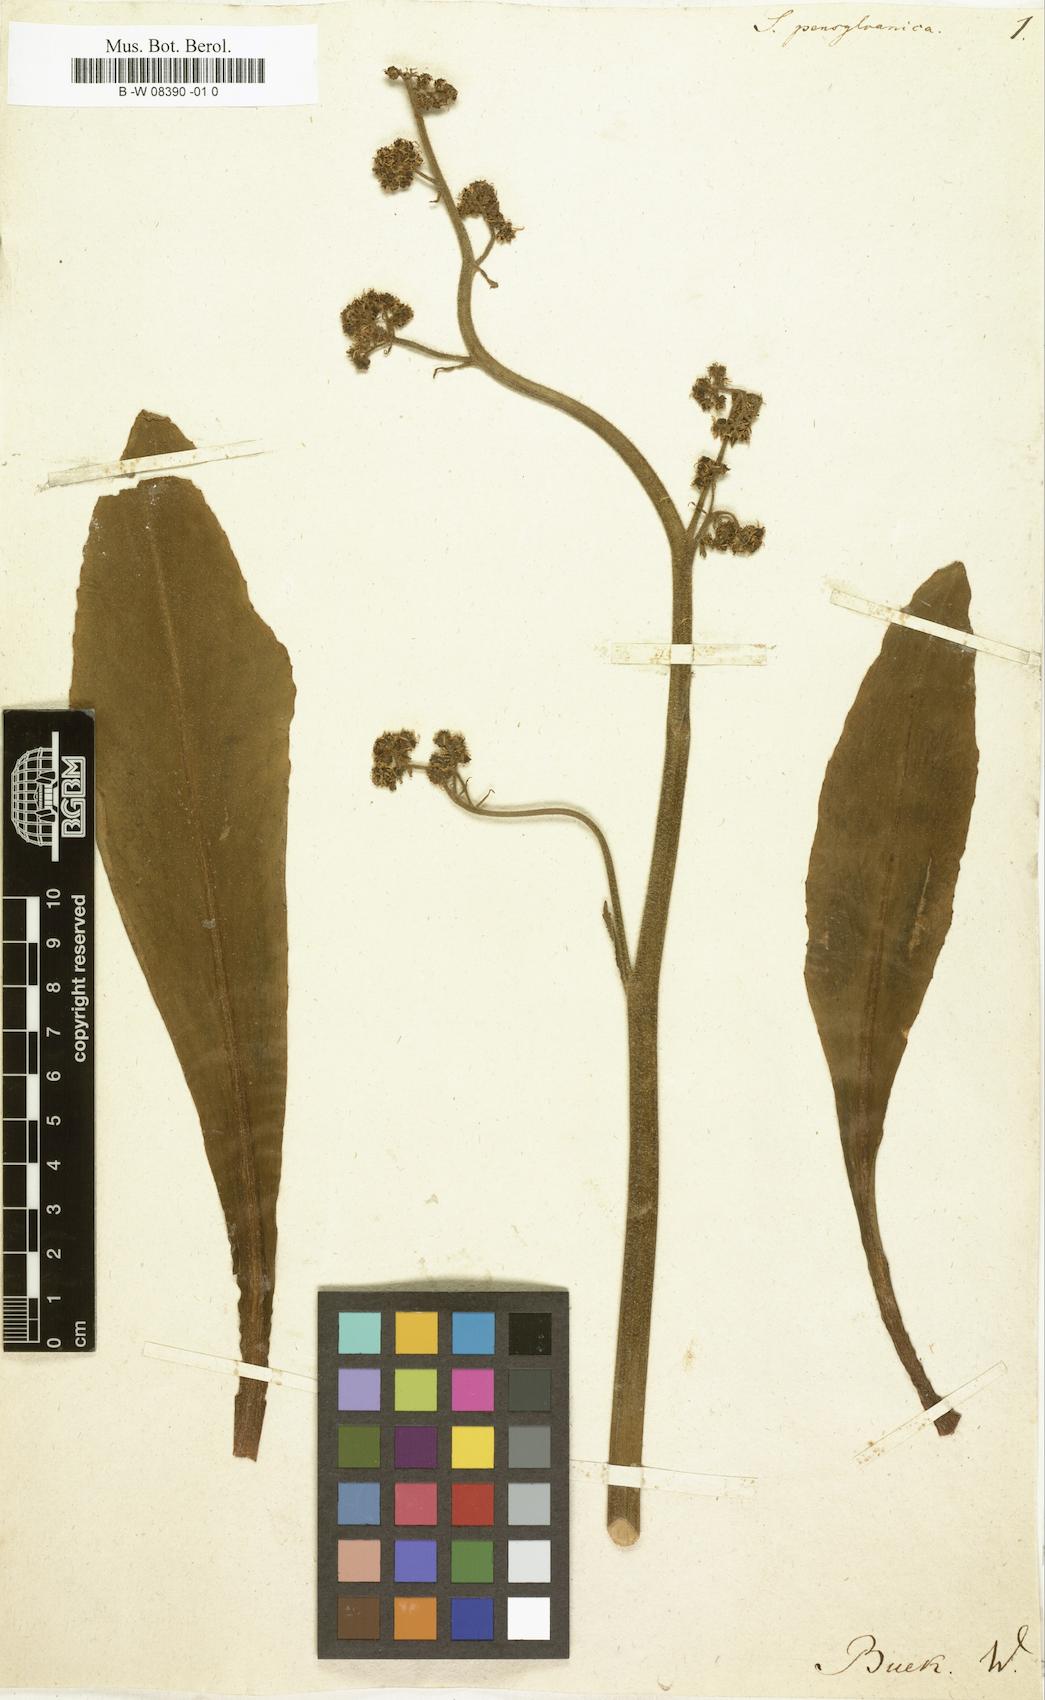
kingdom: Plantae
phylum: Tracheophyta
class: Magnoliopsida
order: Saxifragales
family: Saxifragaceae
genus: Micranthes
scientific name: Micranthes pensylvanica
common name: Marsh saxifrage
